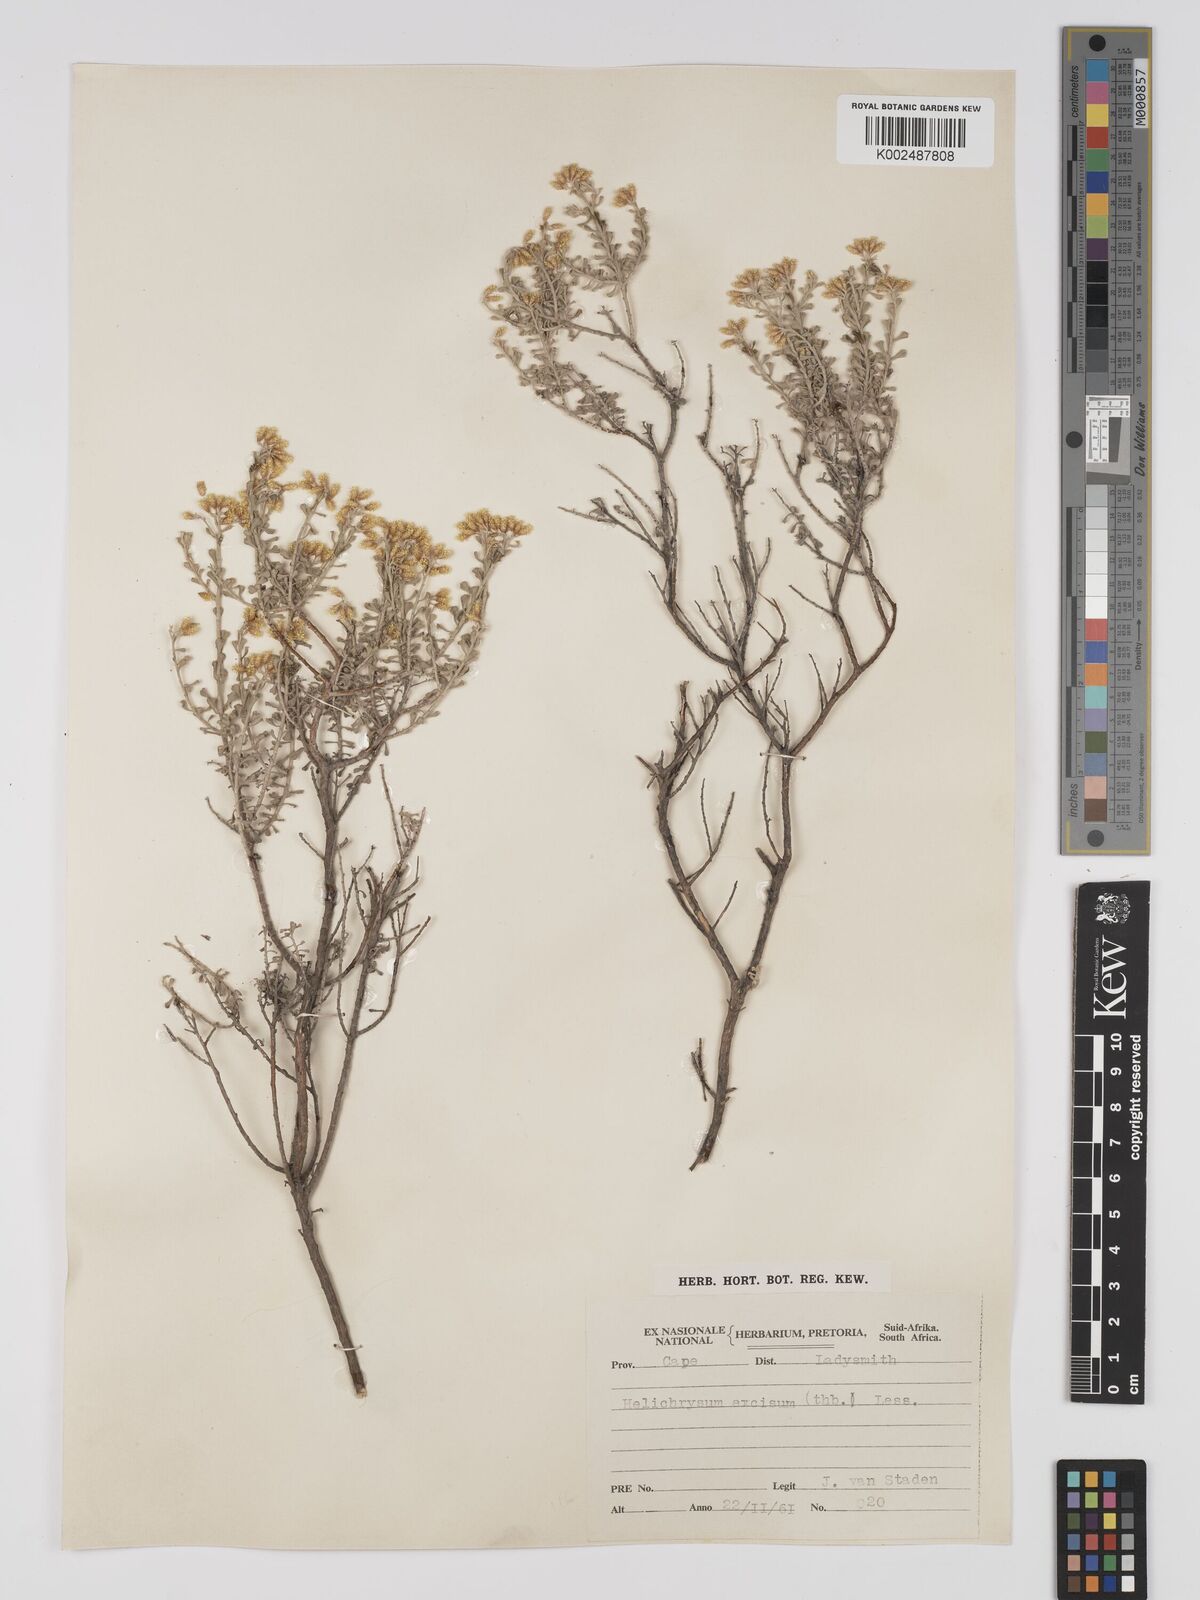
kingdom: Plantae
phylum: Tracheophyta
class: Magnoliopsida
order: Asterales
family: Asteraceae
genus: Helichrysum
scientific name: Helichrysum excisum
